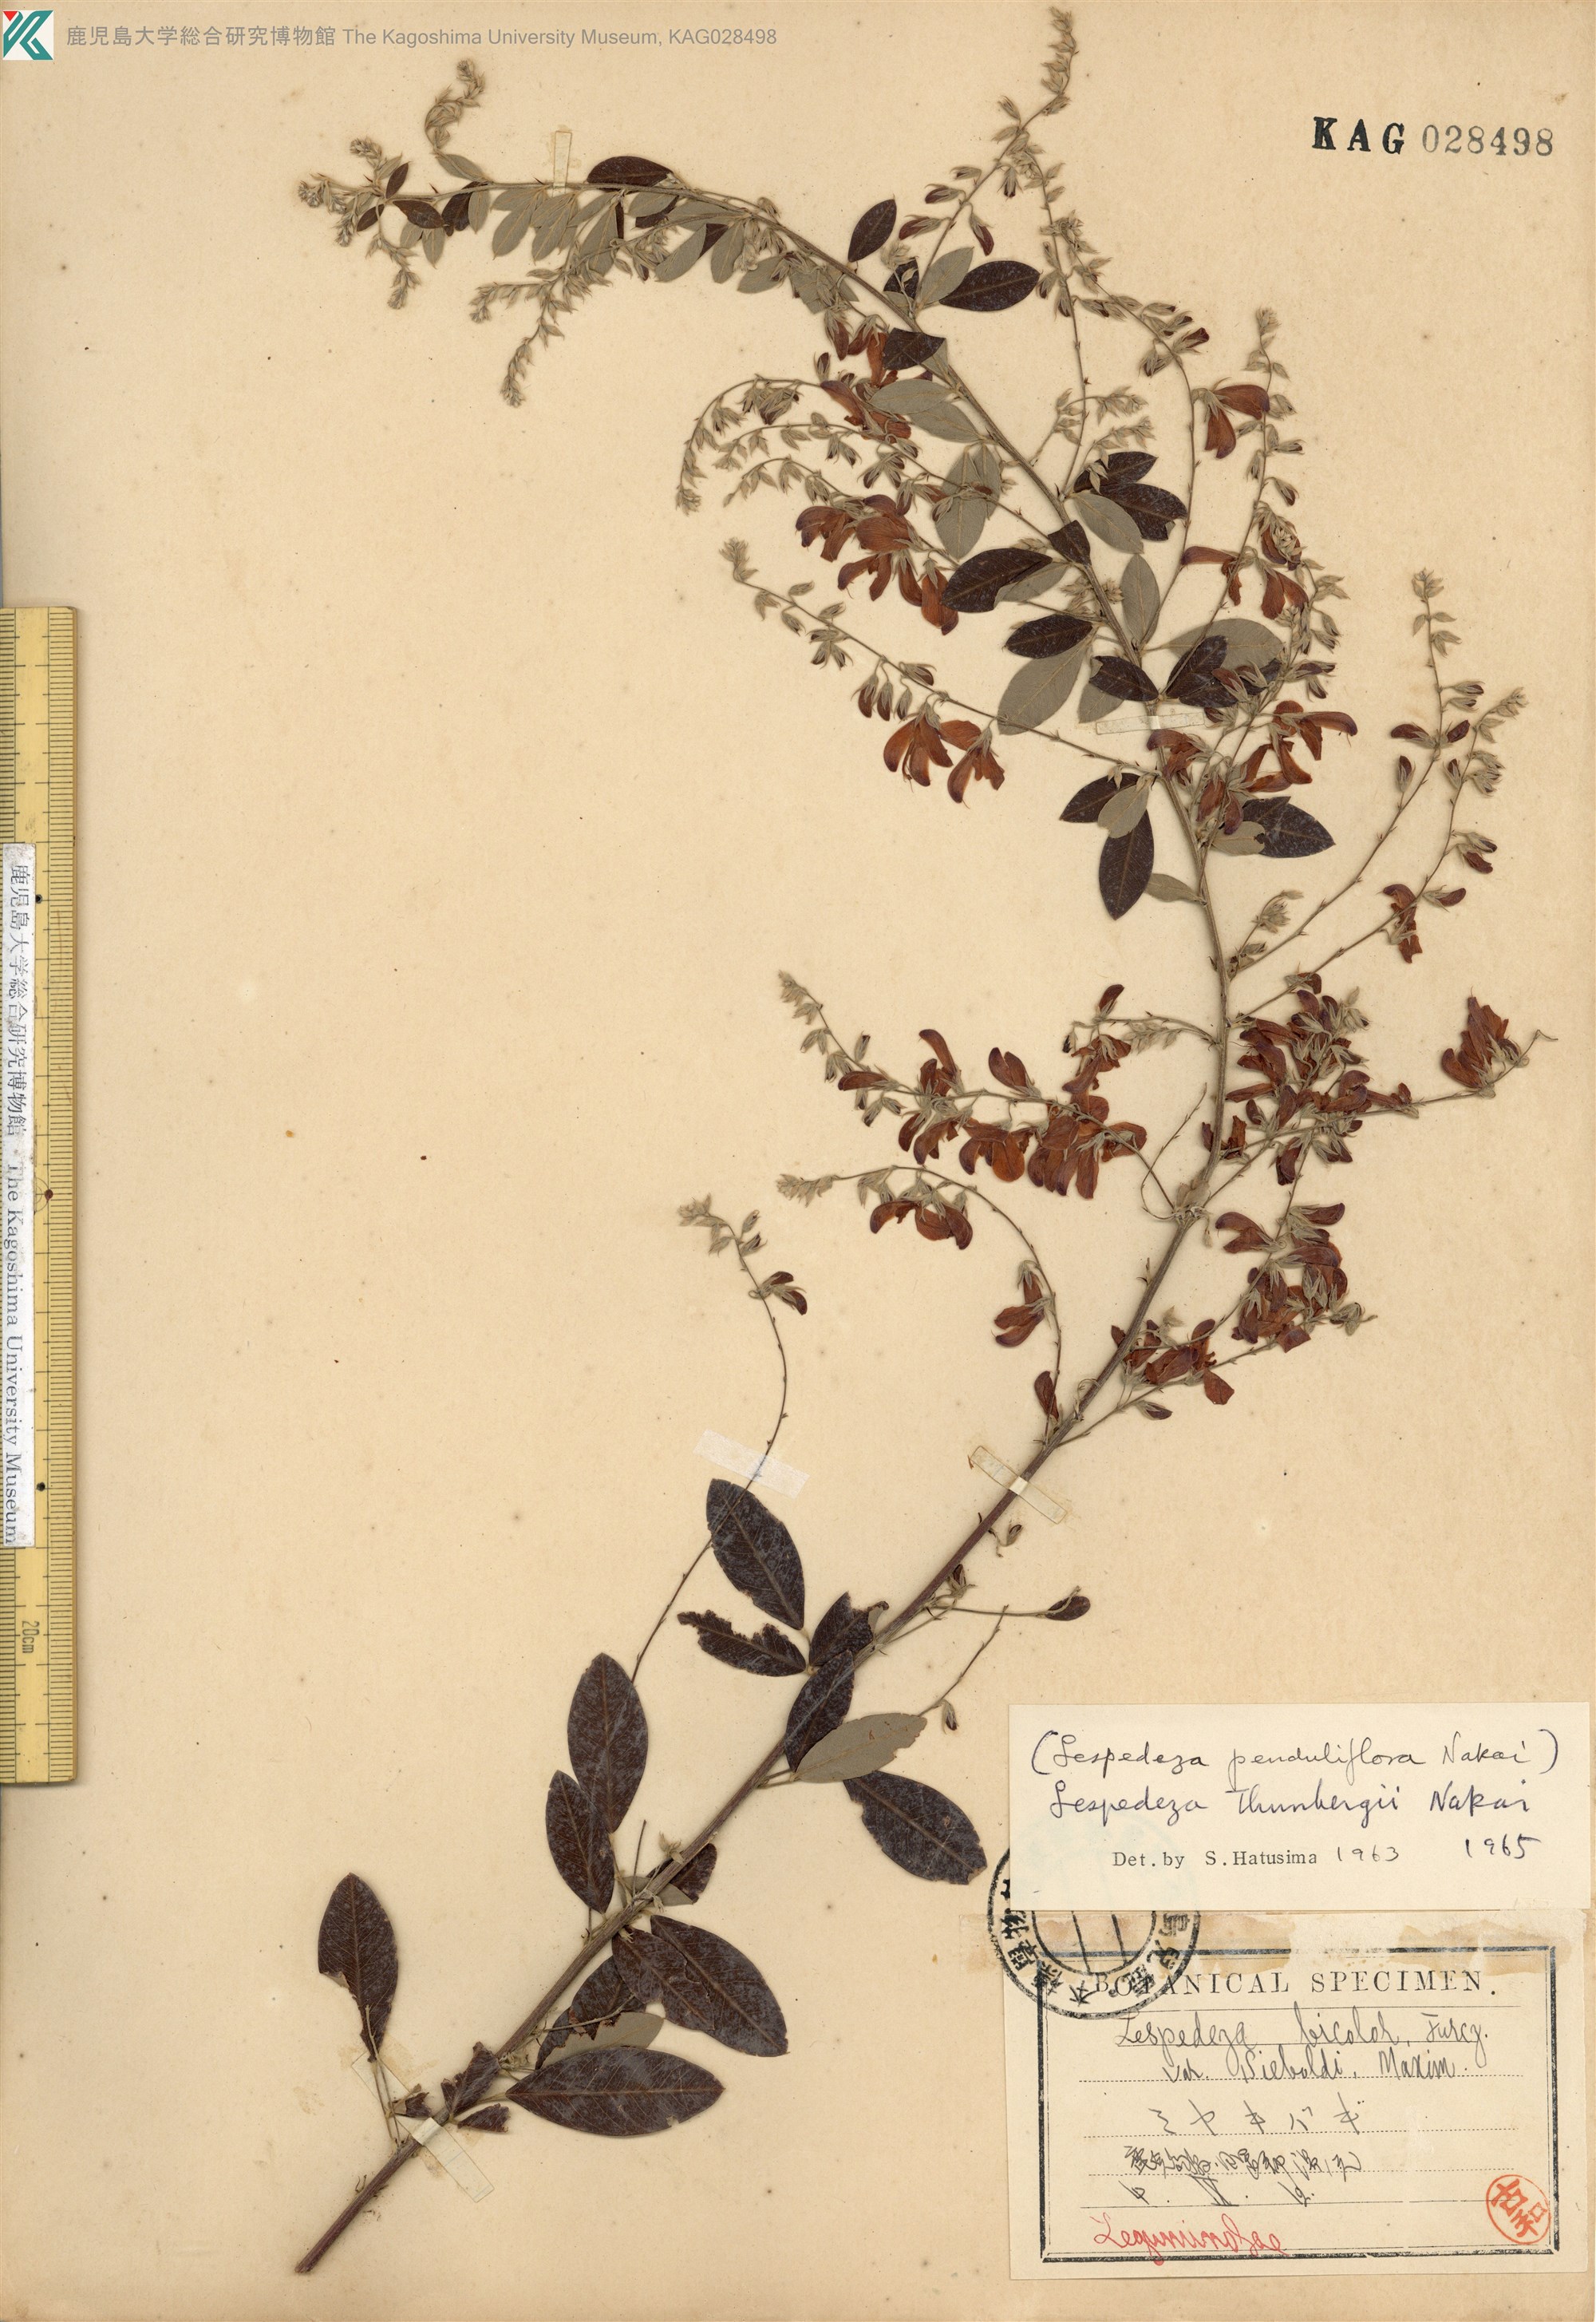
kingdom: Plantae
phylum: Tracheophyta
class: Magnoliopsida
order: Fabales
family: Fabaceae
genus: Lespedeza
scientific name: Lespedeza thunbergii
